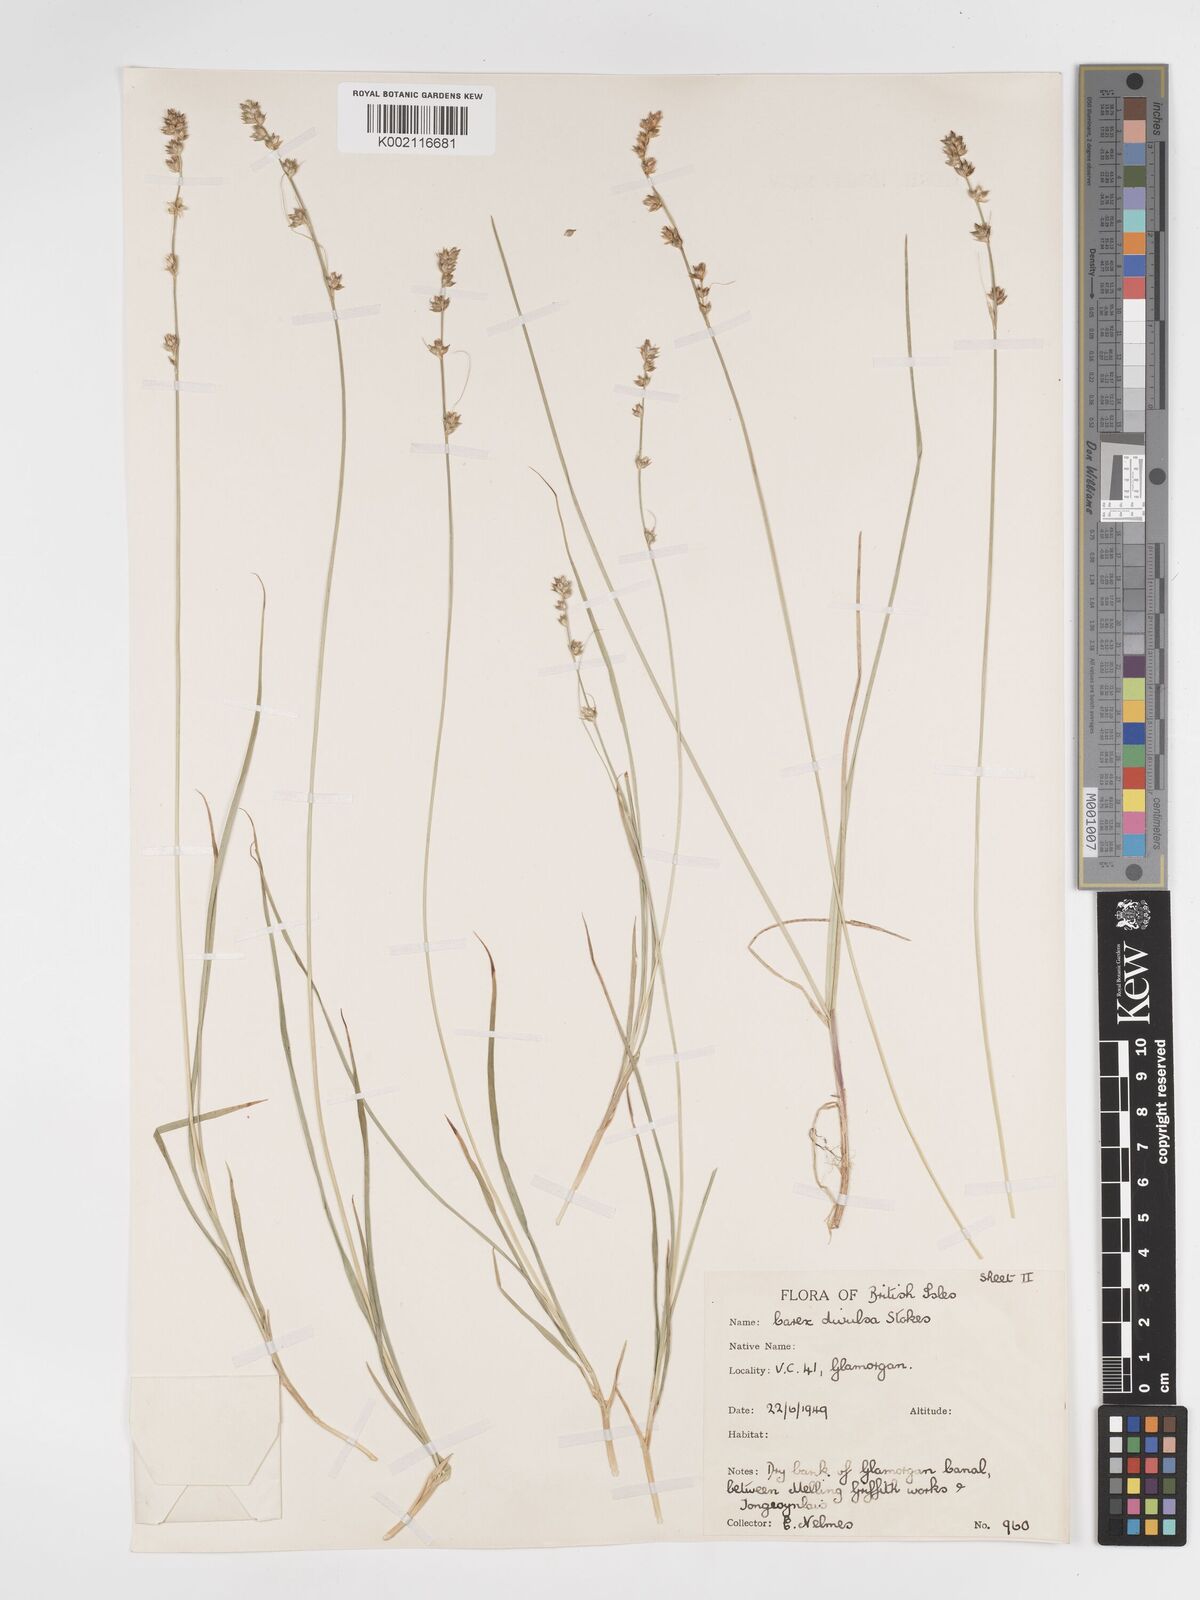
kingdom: Plantae
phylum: Tracheophyta
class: Liliopsida
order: Poales
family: Cyperaceae
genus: Carex
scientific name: Carex divulsa
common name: Grassland sedge
